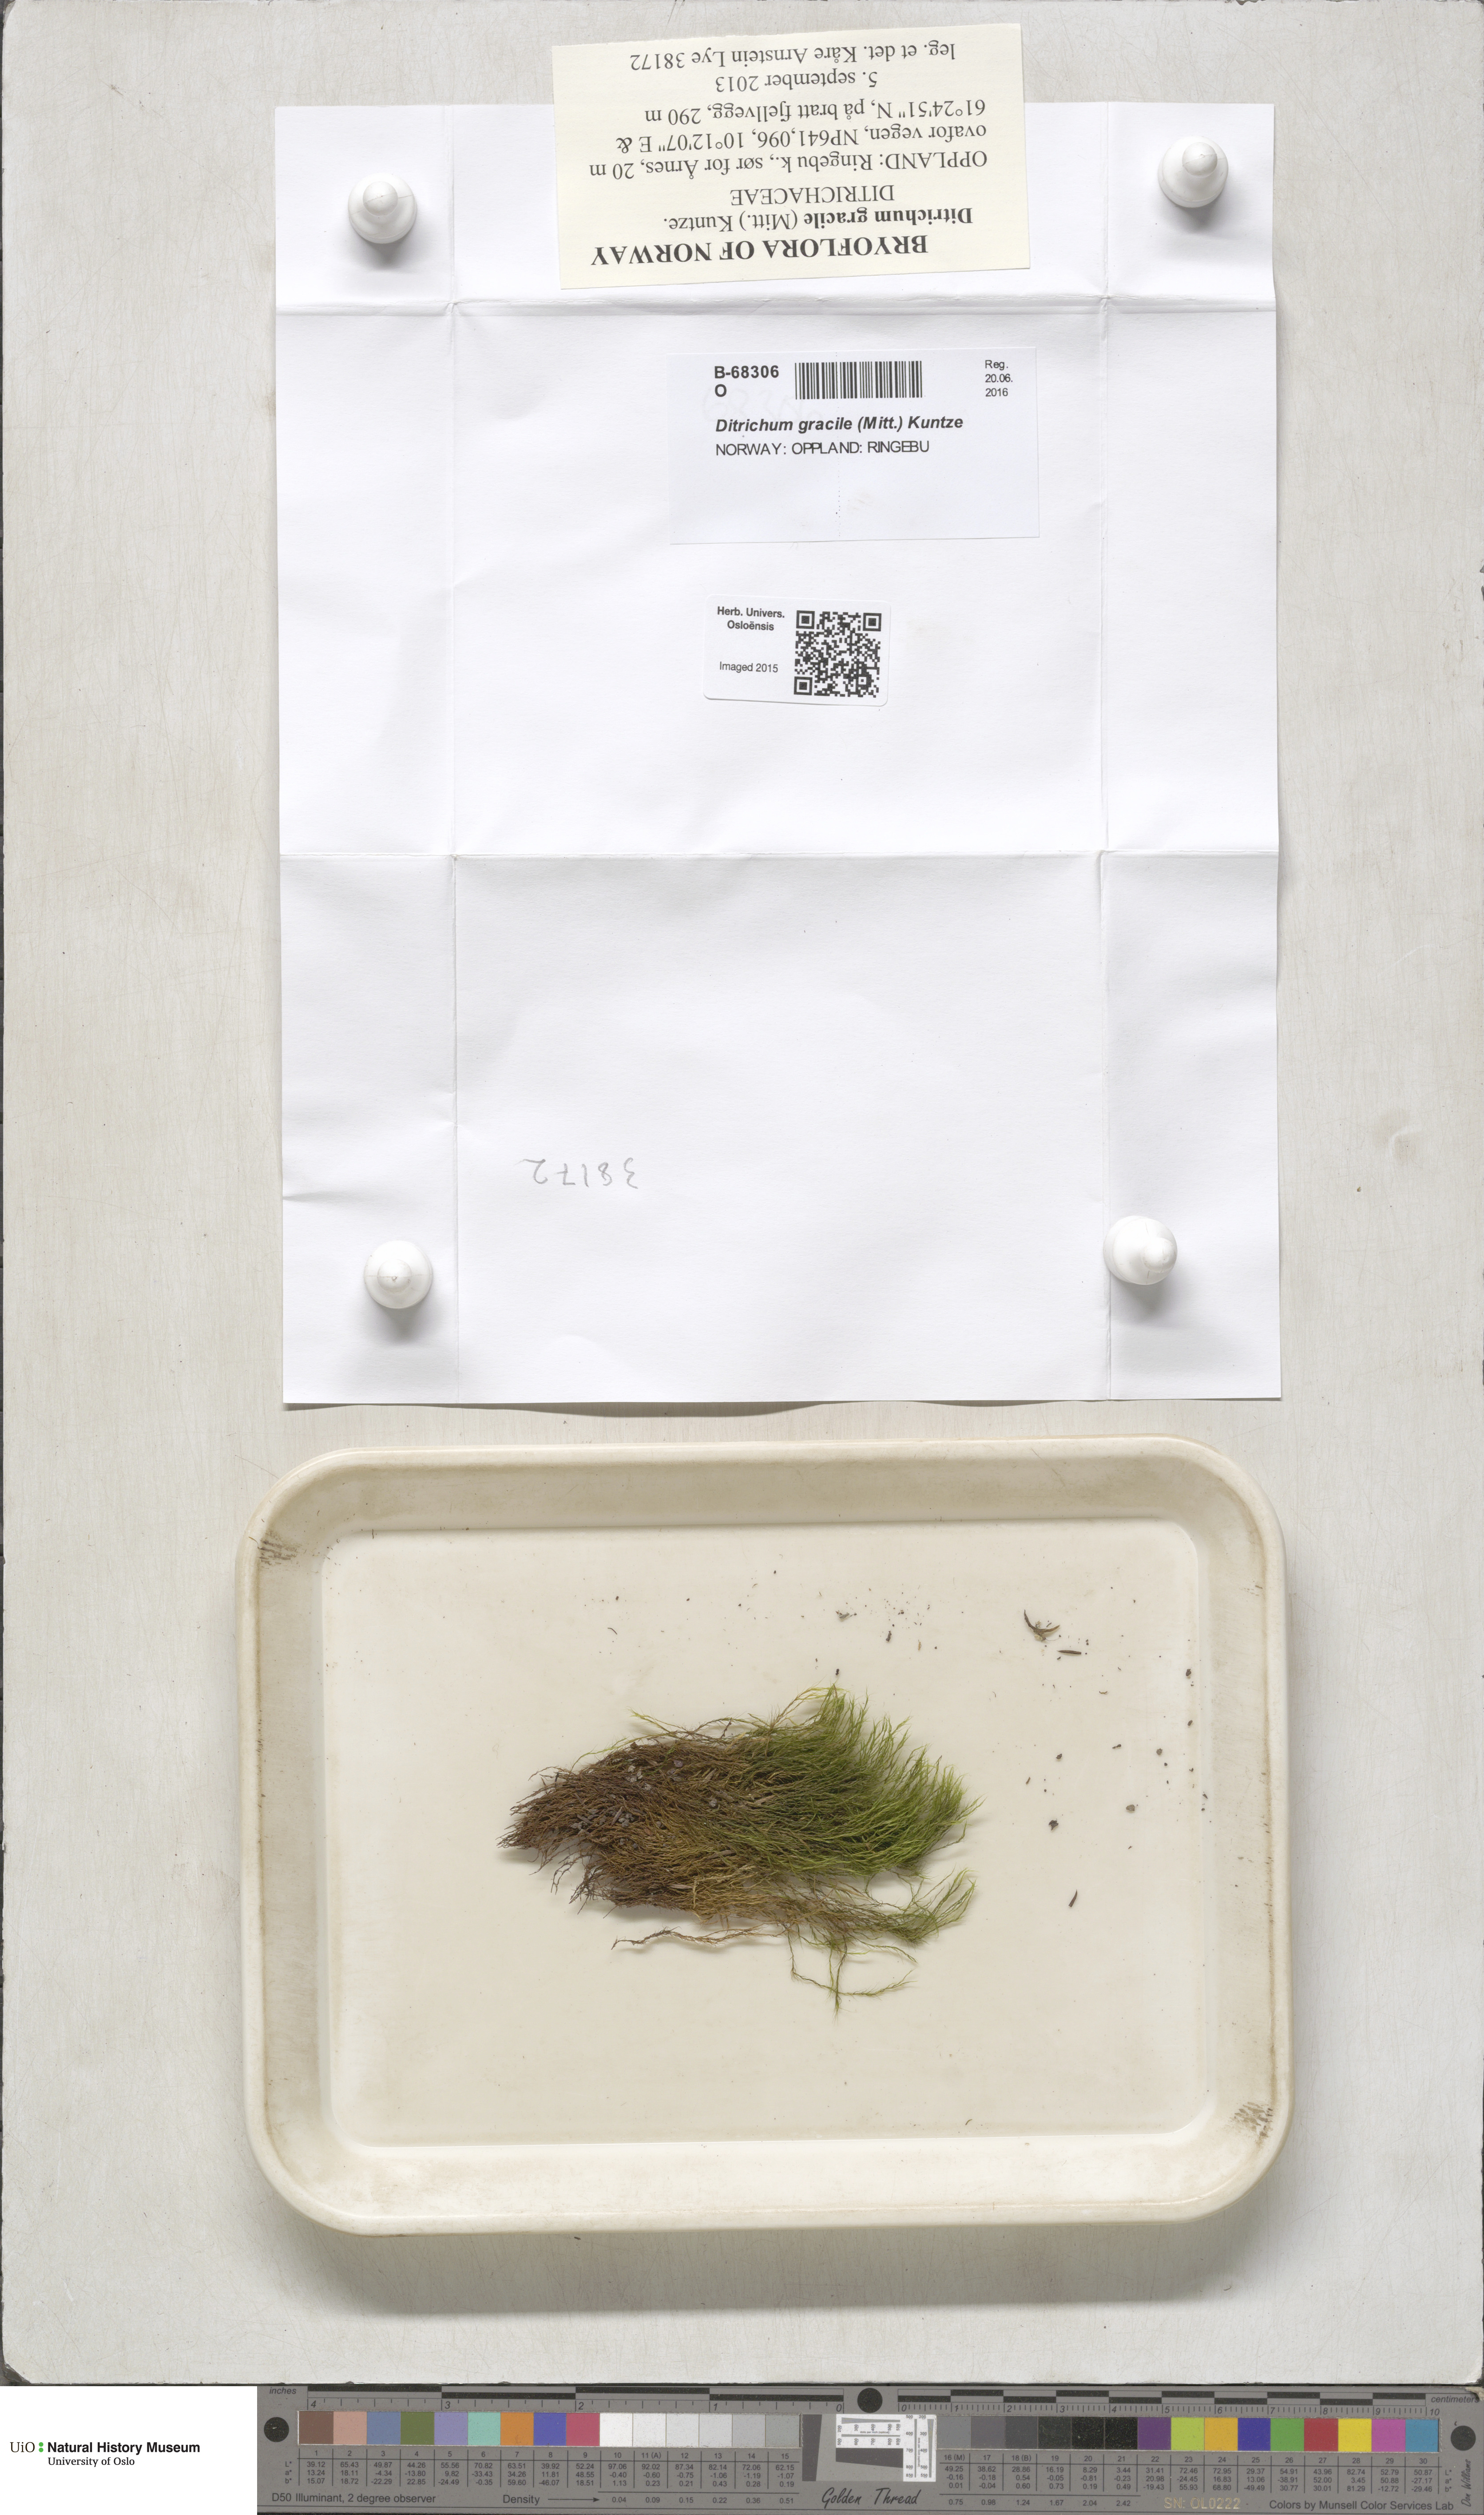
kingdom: Plantae
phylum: Bryophyta
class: Bryopsida
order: Scouleriales
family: Flexitrichaceae
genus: Flexitrichum
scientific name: Flexitrichum gracile
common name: Slender ditrichum
